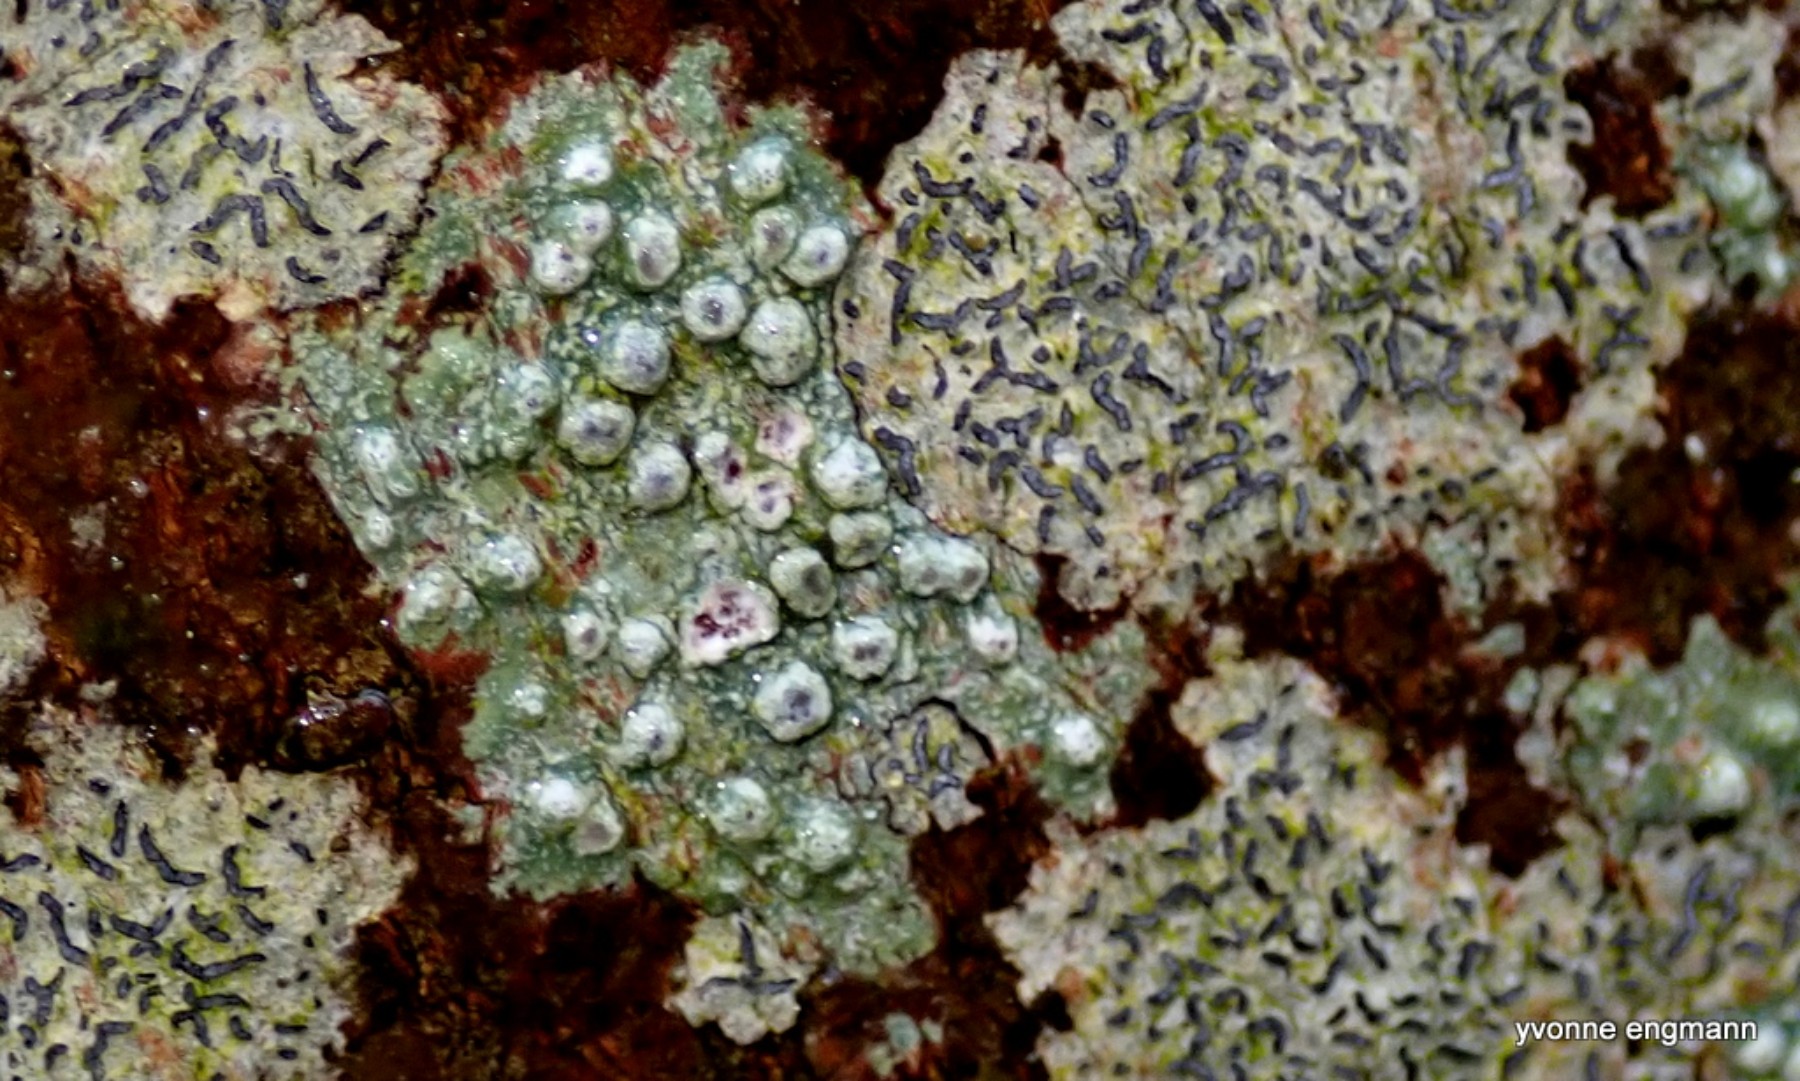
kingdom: Fungi
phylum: Ascomycota
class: Lecanoromycetes
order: Pertusariales
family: Pertusariaceae
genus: Pertusaria
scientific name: Pertusaria pertusa
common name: almindelig prikvortelav
